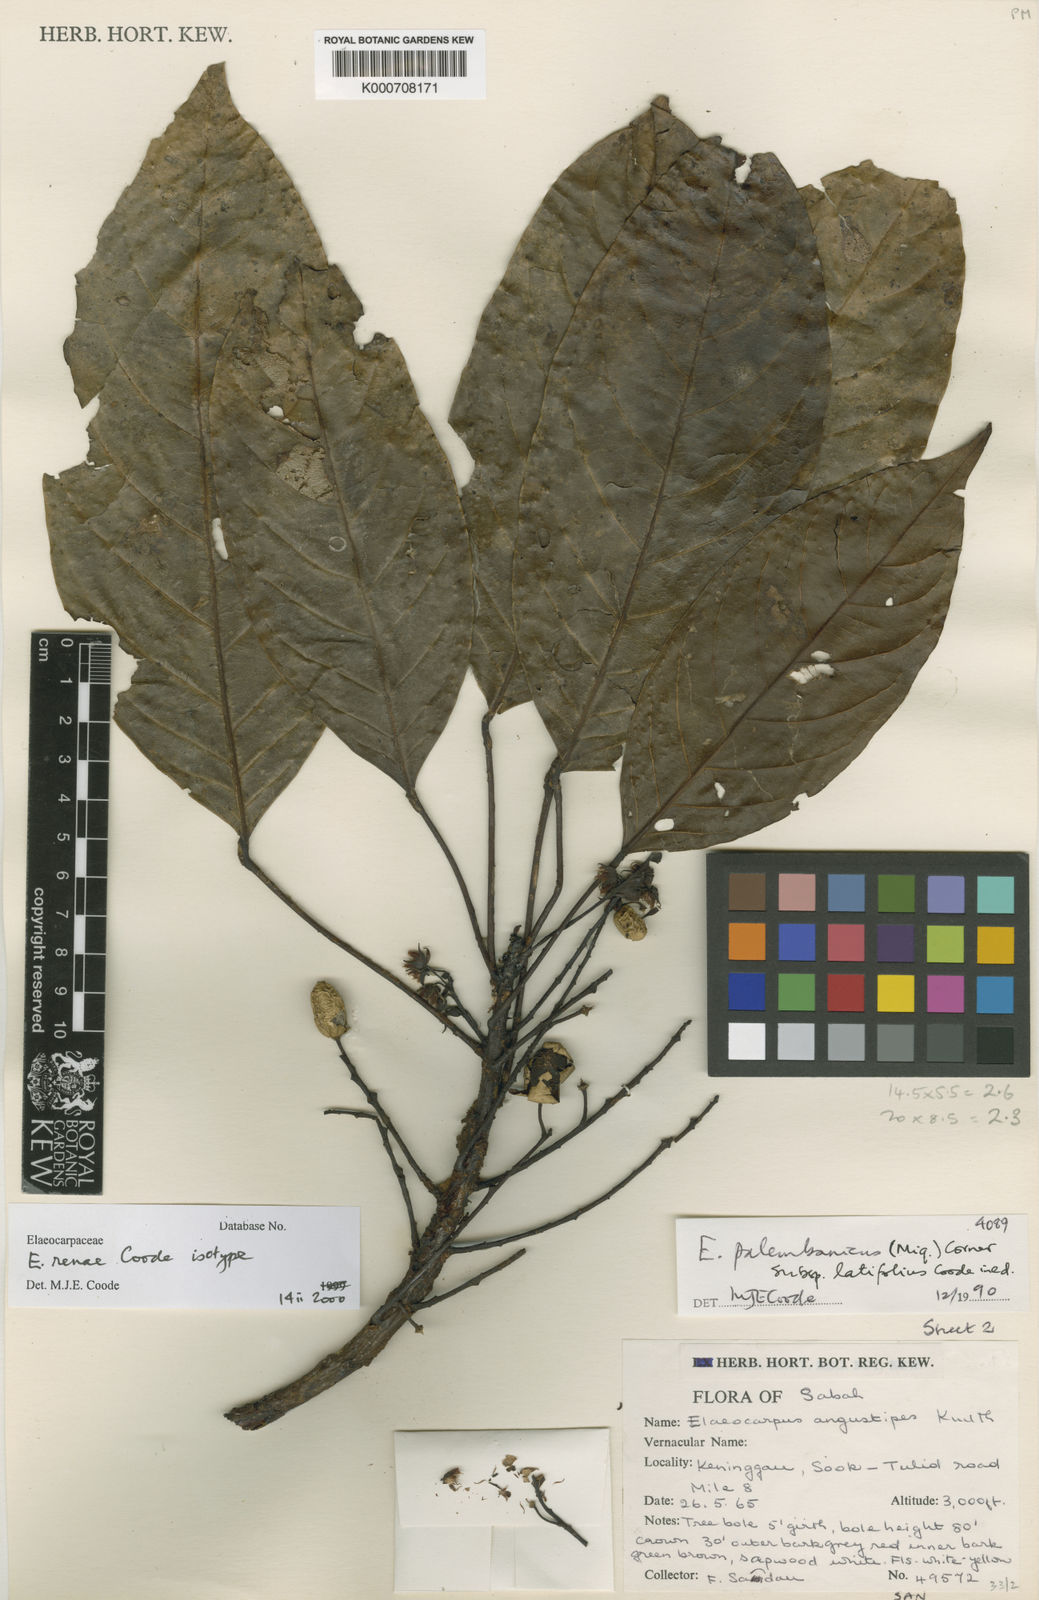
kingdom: Plantae
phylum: Tracheophyta
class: Magnoliopsida
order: Oxalidales
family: Elaeocarpaceae
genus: Elaeocarpus
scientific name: Elaeocarpus renae
